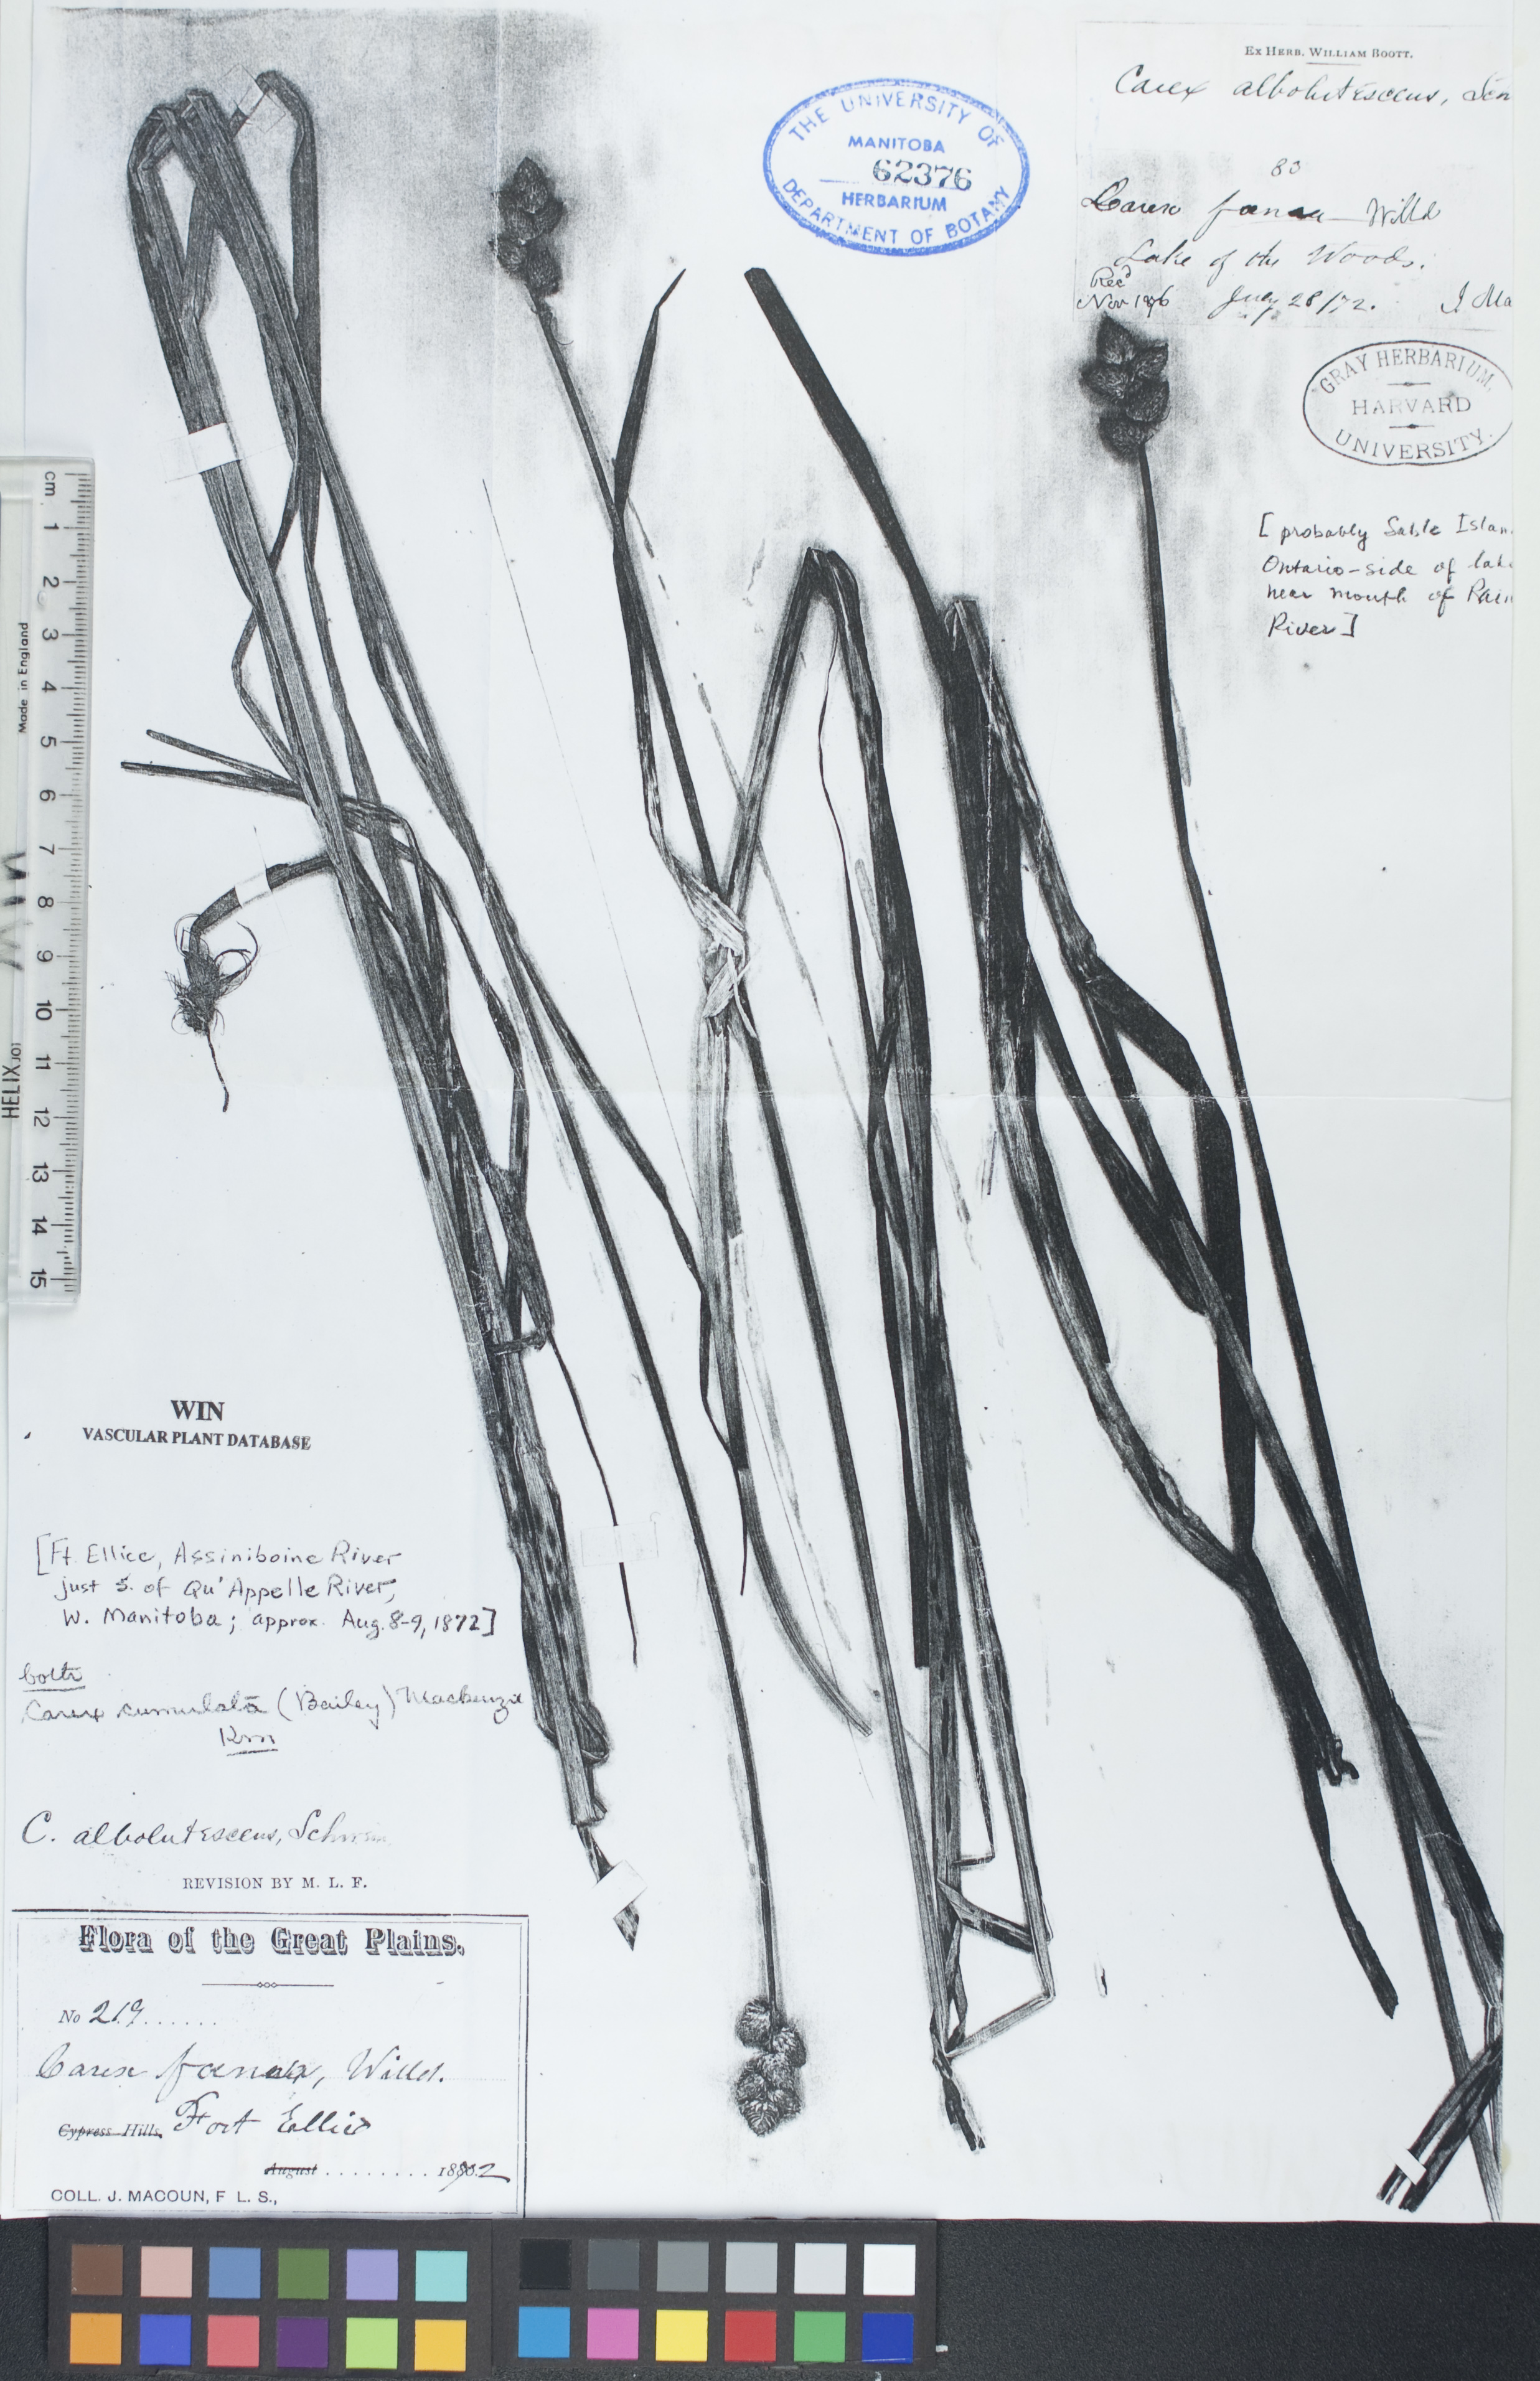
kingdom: Plantae
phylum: Tracheophyta
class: Liliopsida
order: Poales
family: Cyperaceae
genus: Carex
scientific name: Carex cumulata
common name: Accumulating sedge
